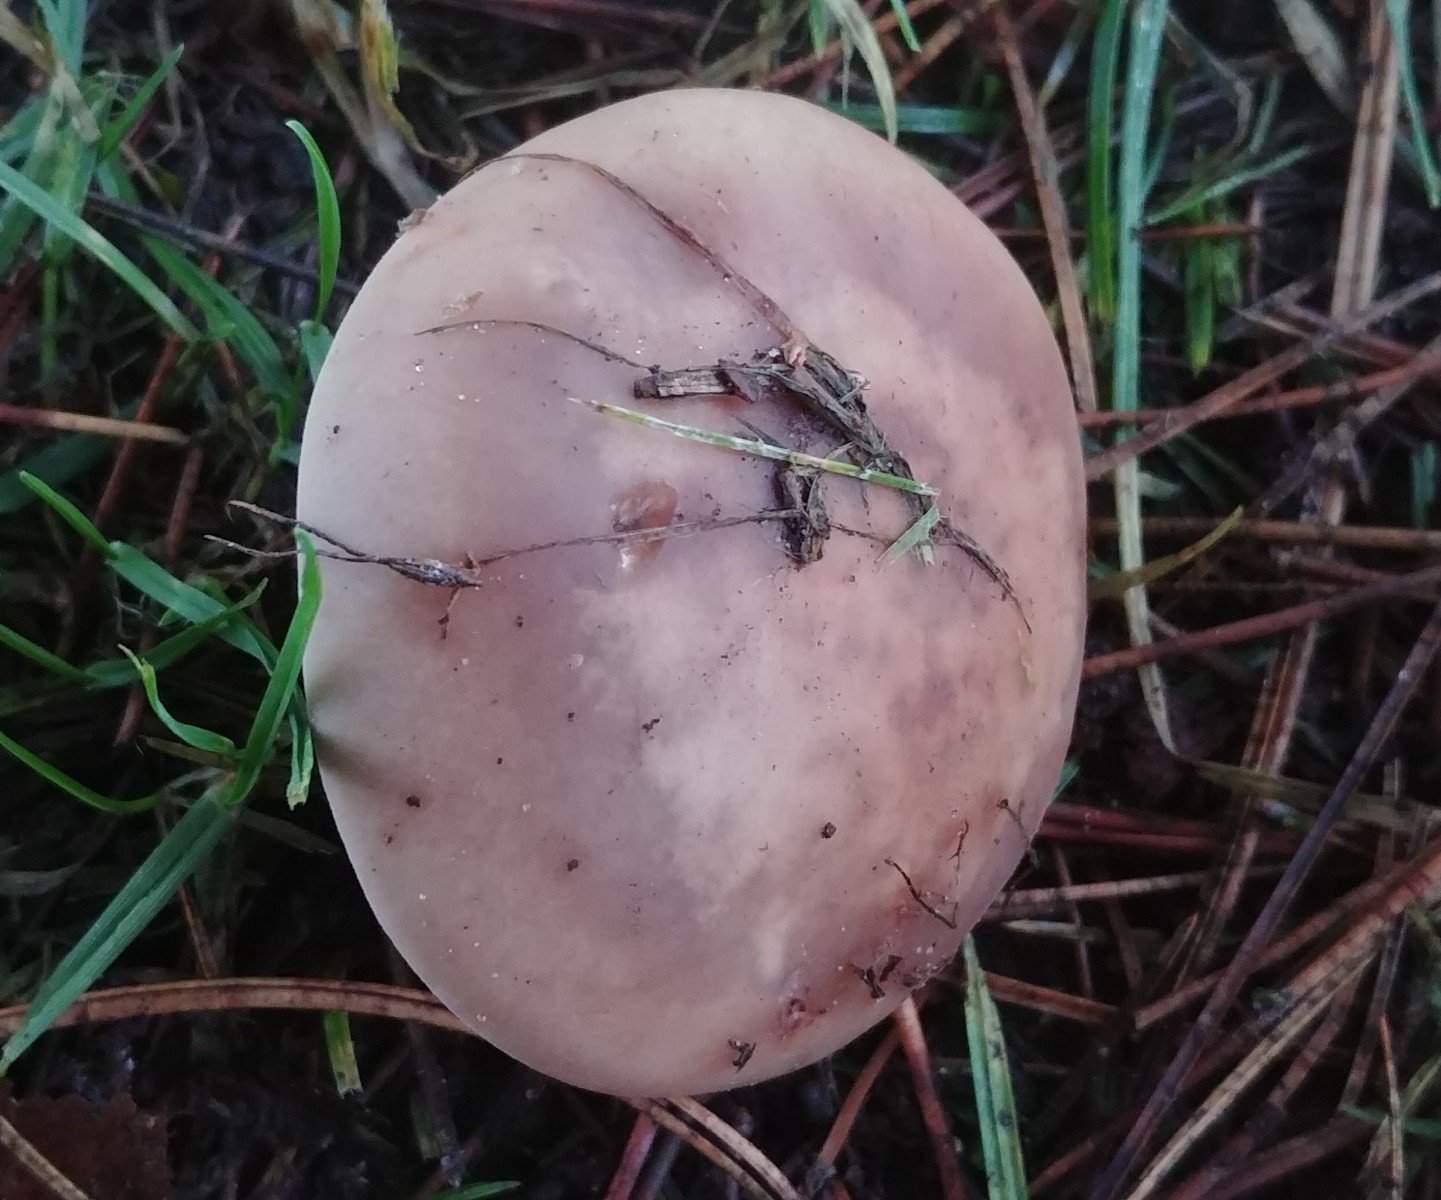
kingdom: Fungi
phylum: Basidiomycota
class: Agaricomycetes
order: Agaricales
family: Tricholomataceae
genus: Lepista
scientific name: Lepista personata
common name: bleg hekseringshat
